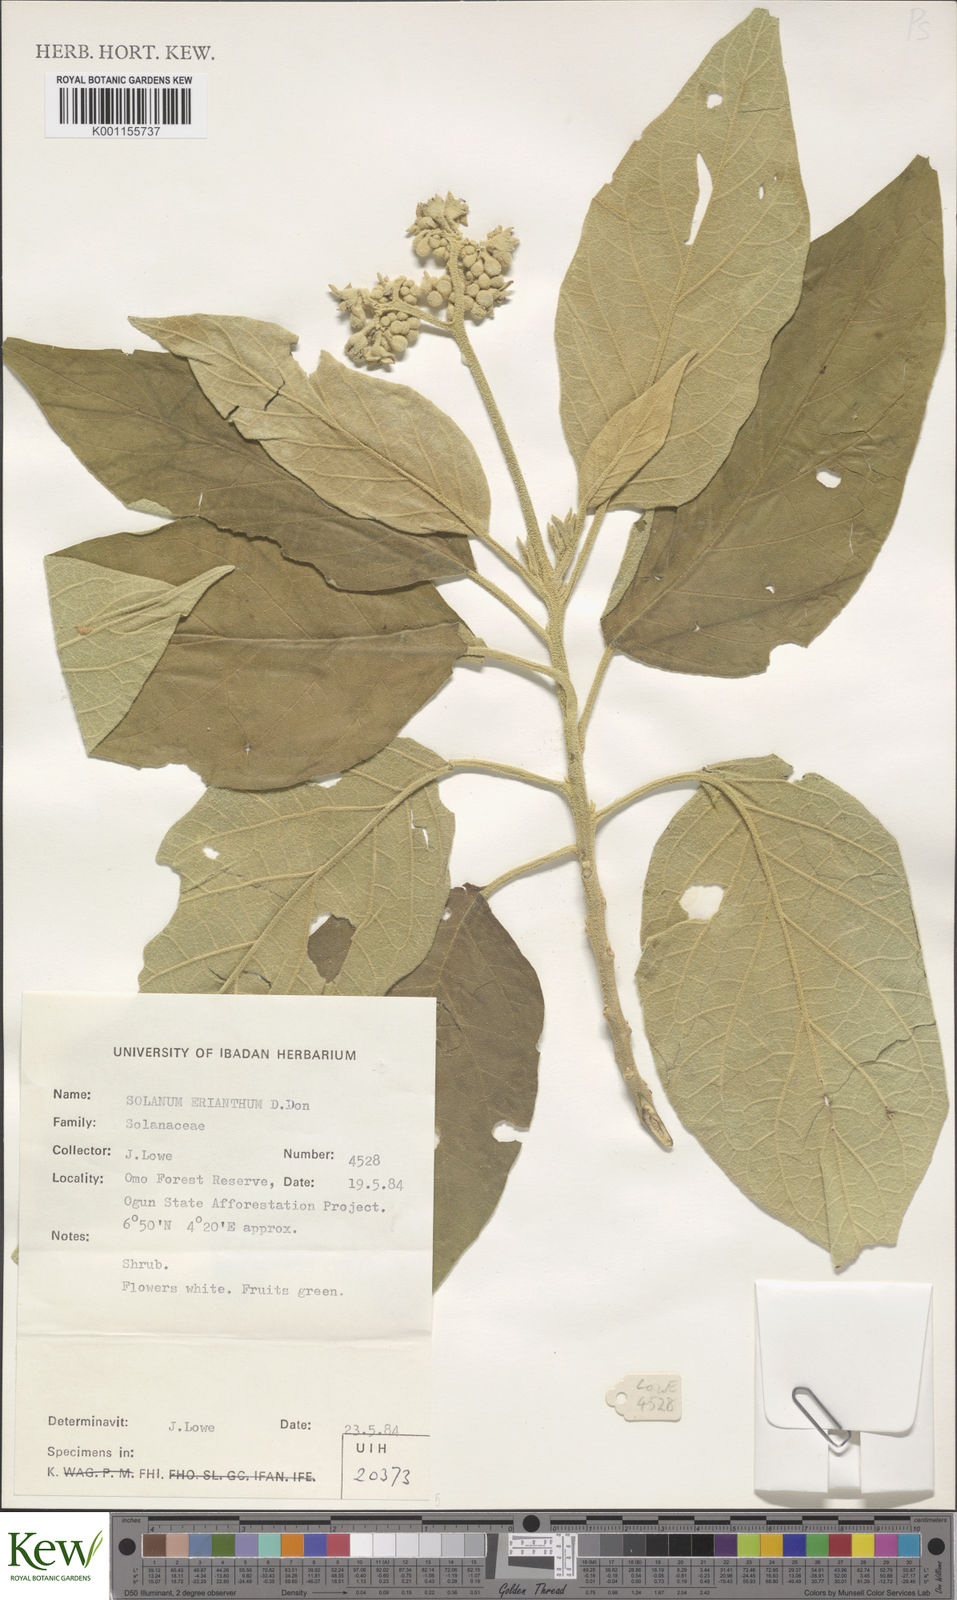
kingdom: Plantae
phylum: Tracheophyta
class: Magnoliopsida
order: Solanales
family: Solanaceae
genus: Solanum
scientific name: Solanum erianthum
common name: Tobacco-tree
